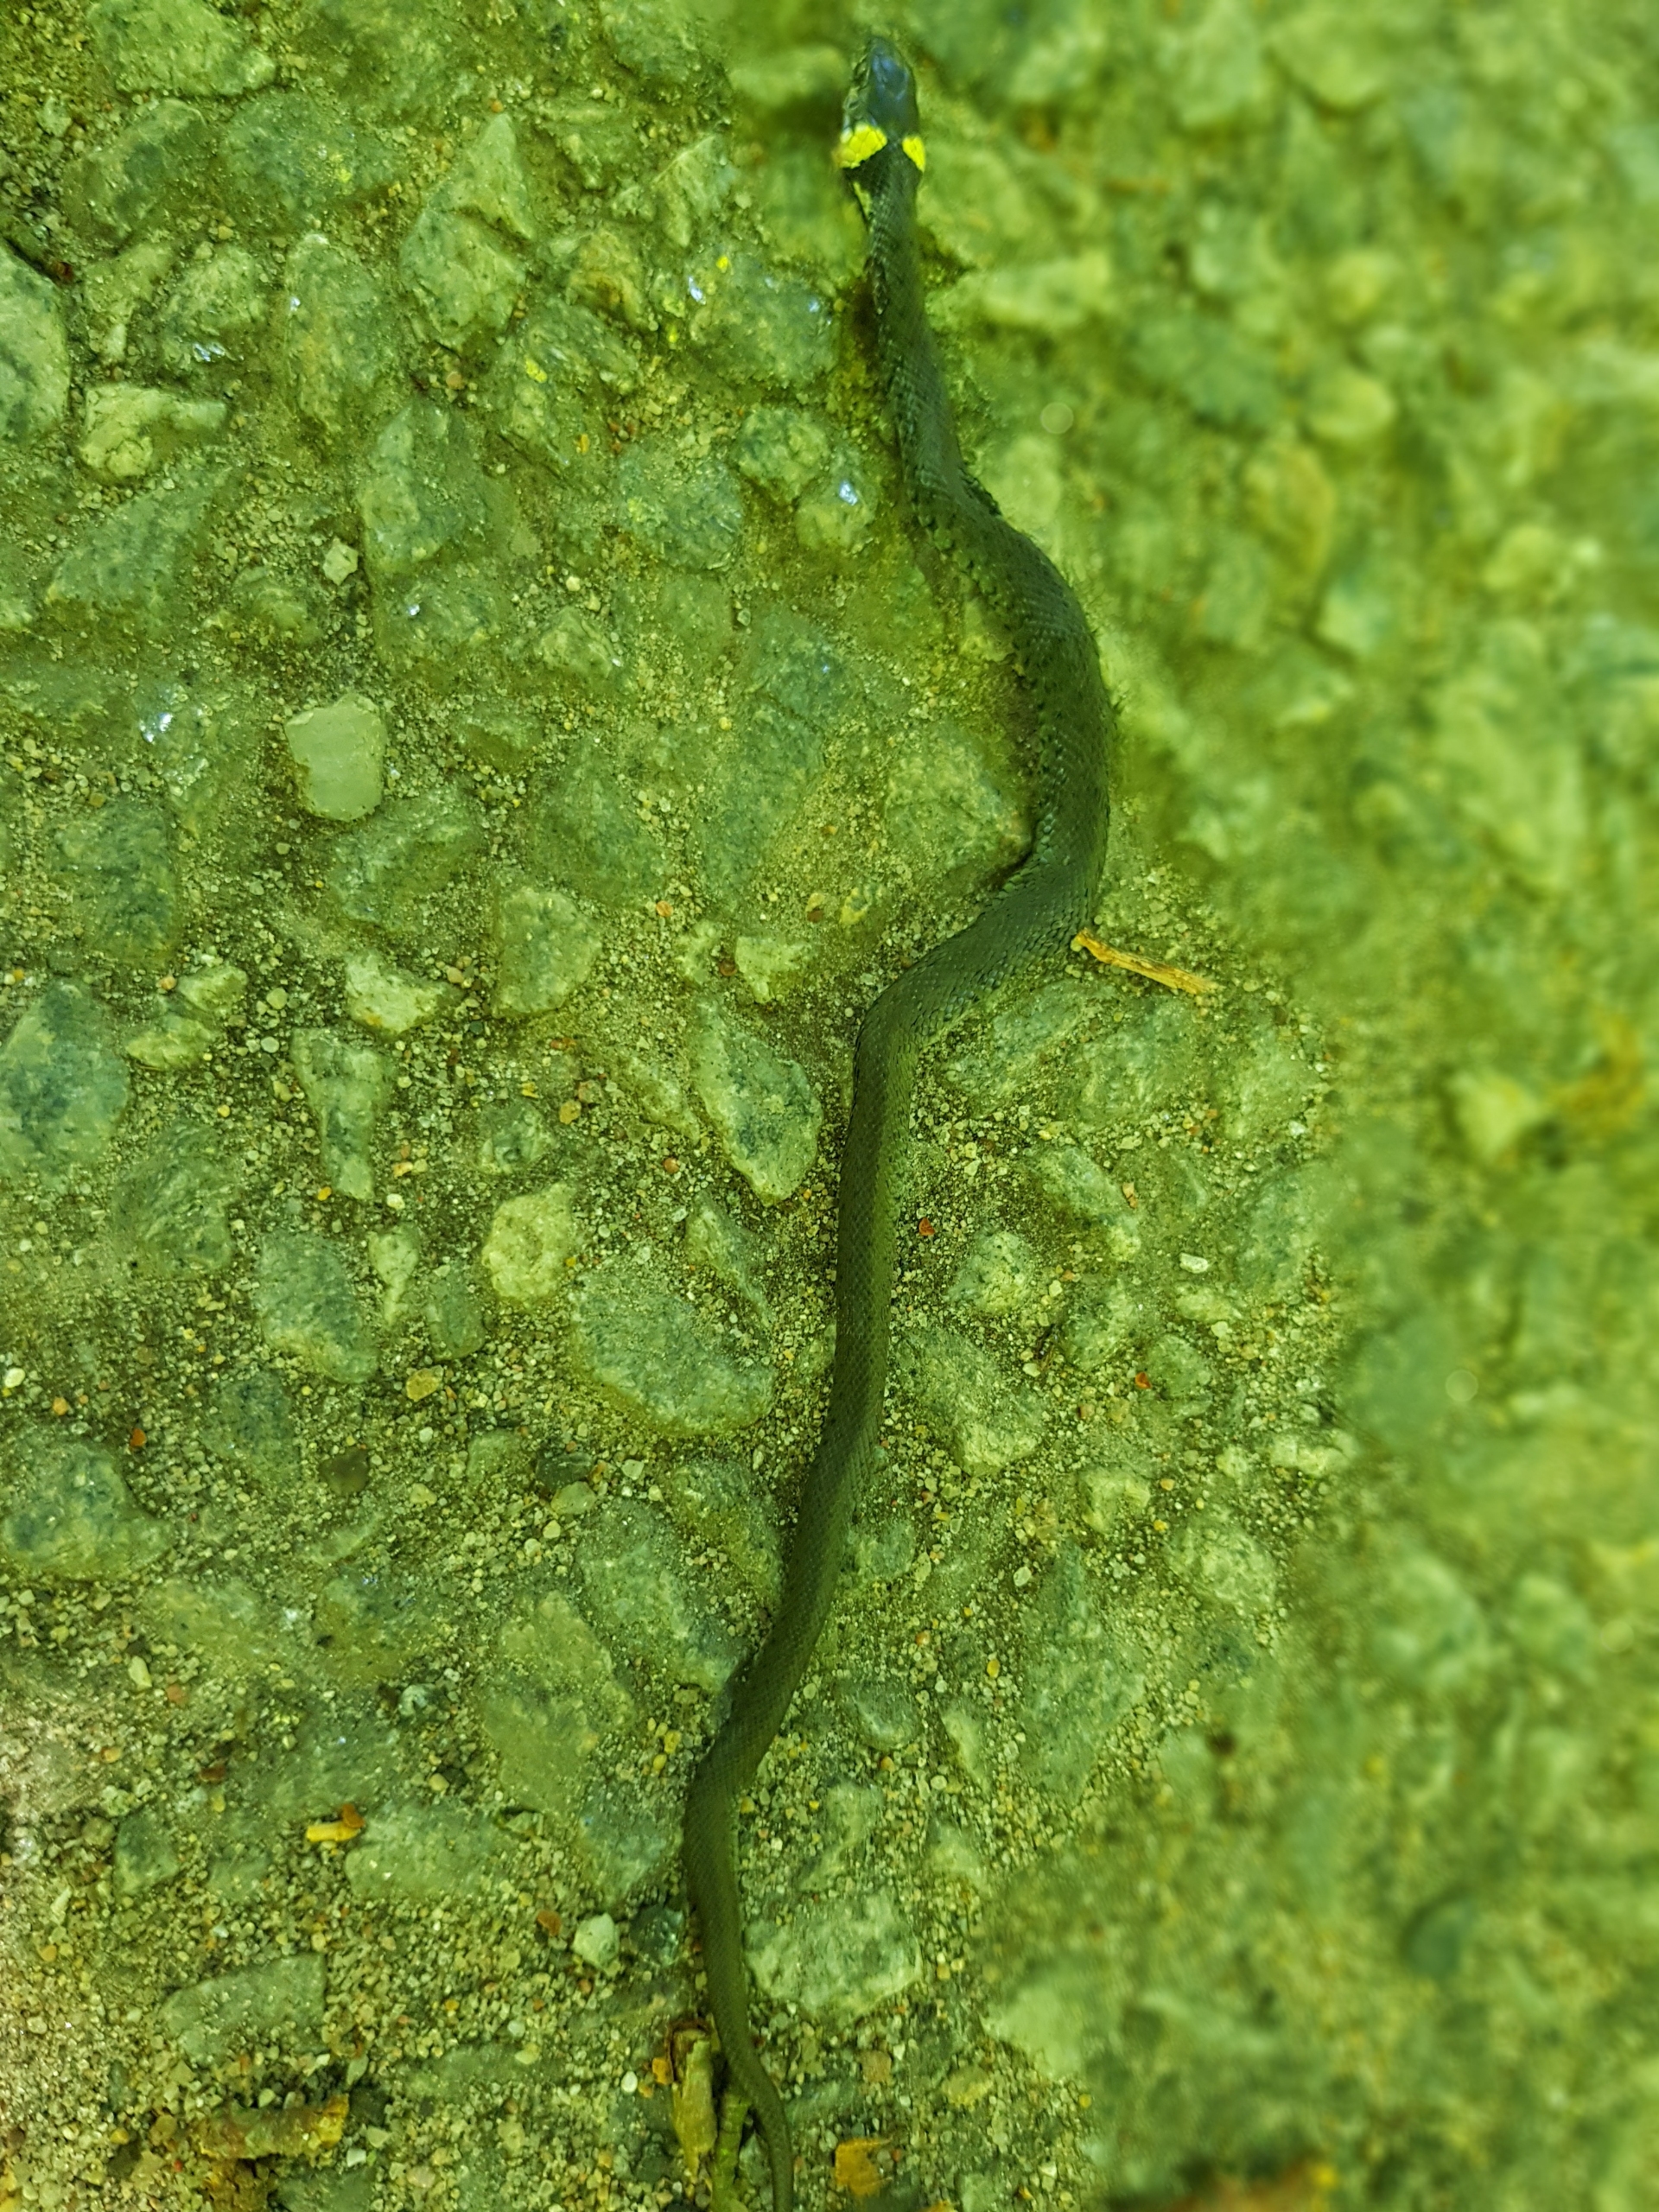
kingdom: Animalia
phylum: Chordata
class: Squamata
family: Colubridae
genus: Natrix
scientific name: Natrix natrix
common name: Snog
